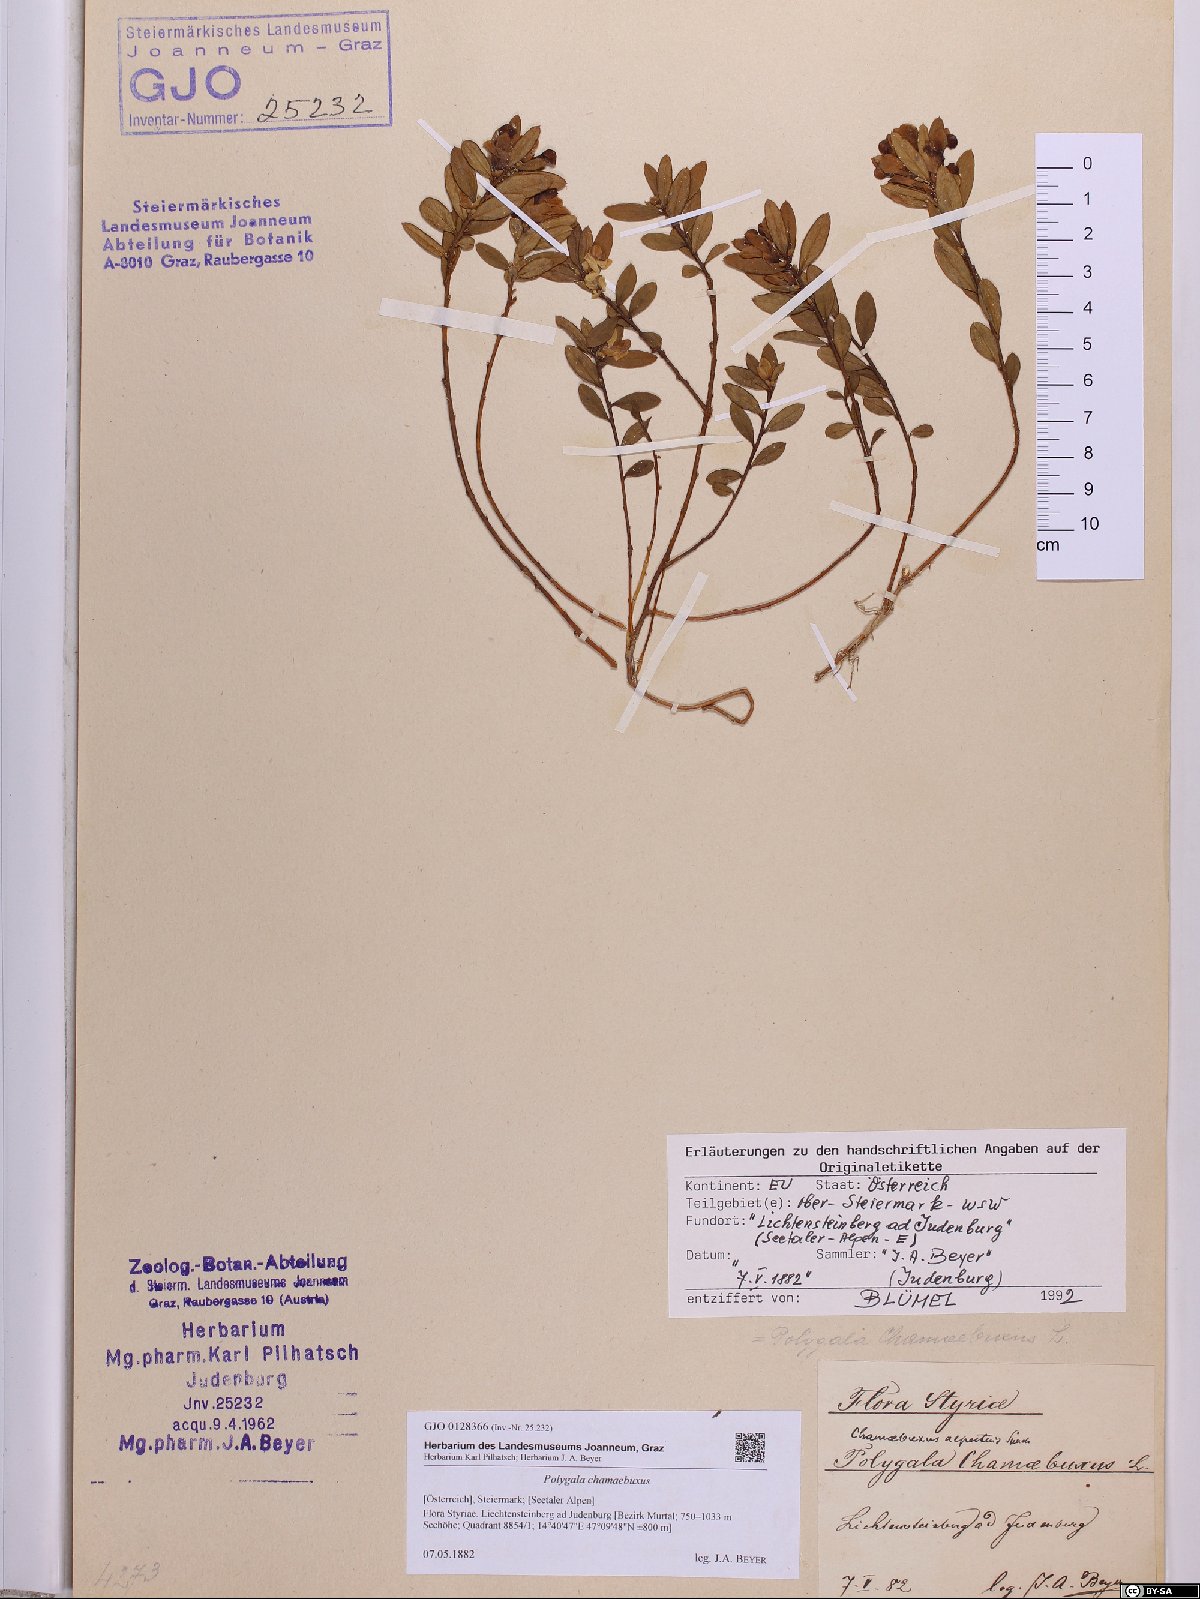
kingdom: Plantae
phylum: Tracheophyta
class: Magnoliopsida
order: Fabales
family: Polygalaceae
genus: Polygaloides
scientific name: Polygaloides chamaebuxus
